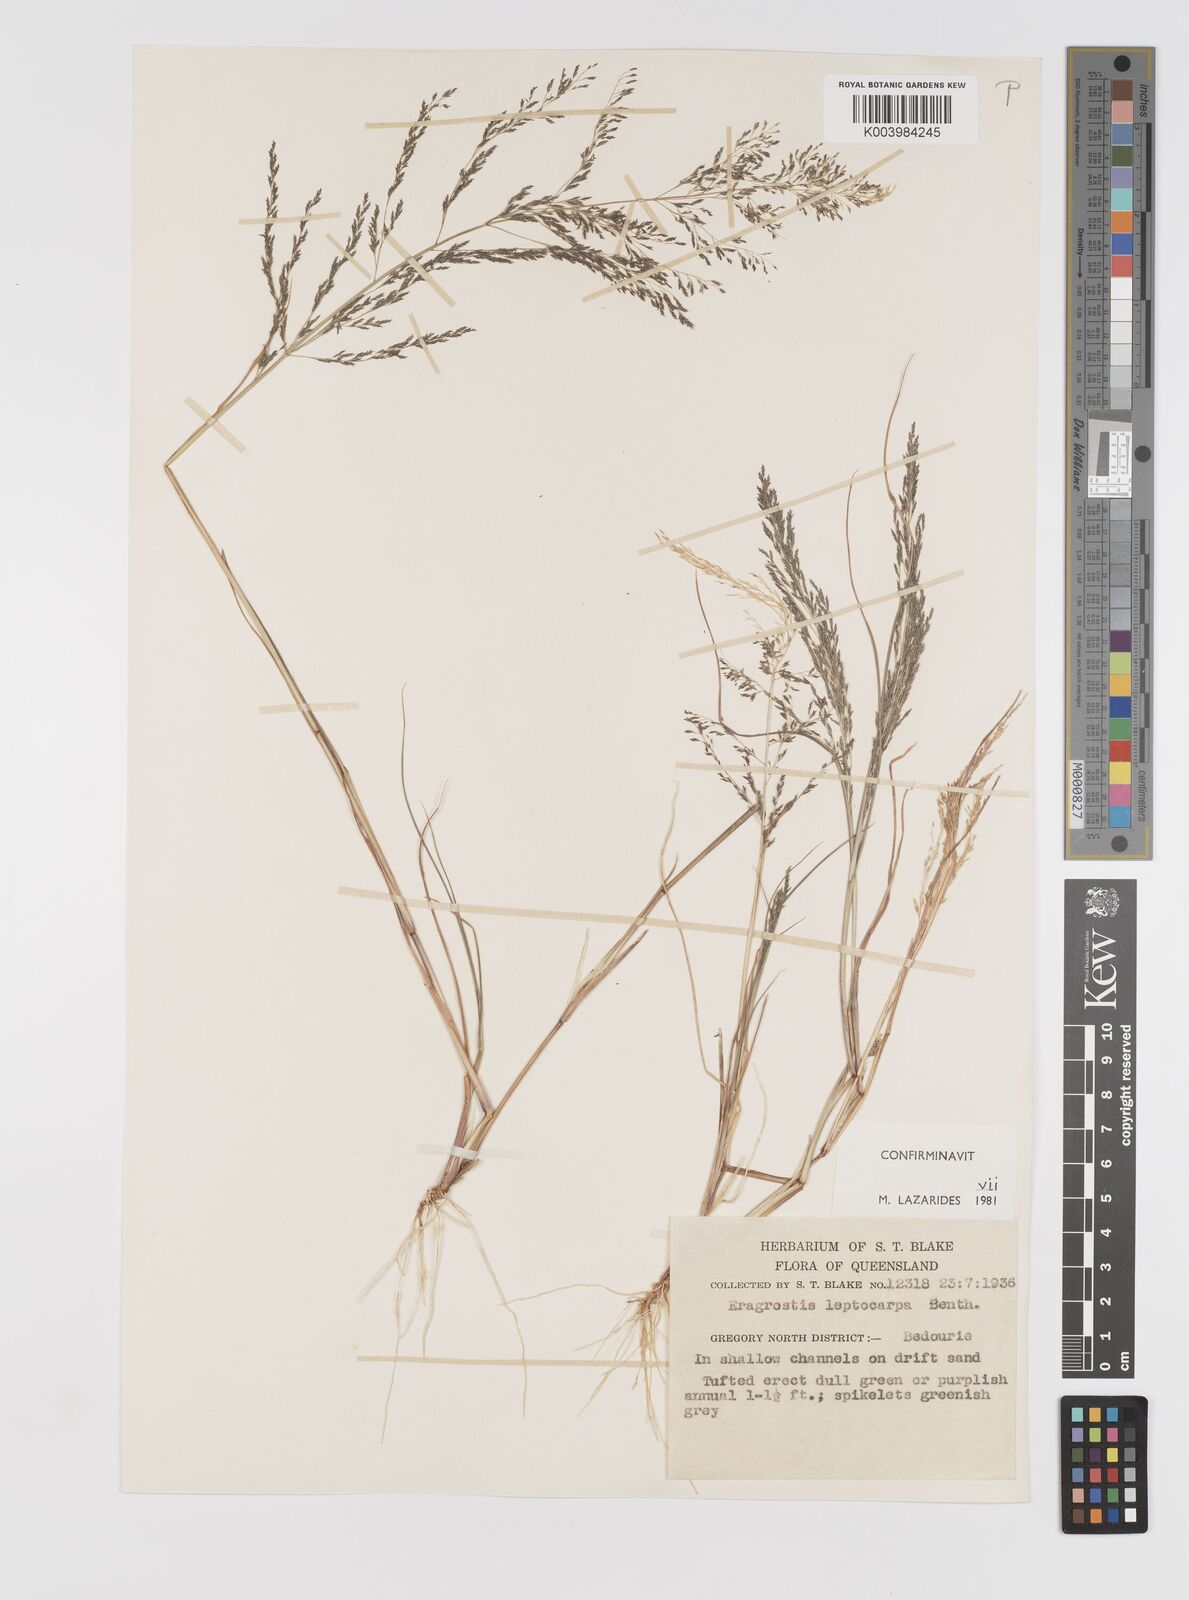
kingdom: Plantae
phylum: Tracheophyta
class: Liliopsida
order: Poales
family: Poaceae
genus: Eragrostis
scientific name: Eragrostis leptocarpa
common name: Drooping love grass
